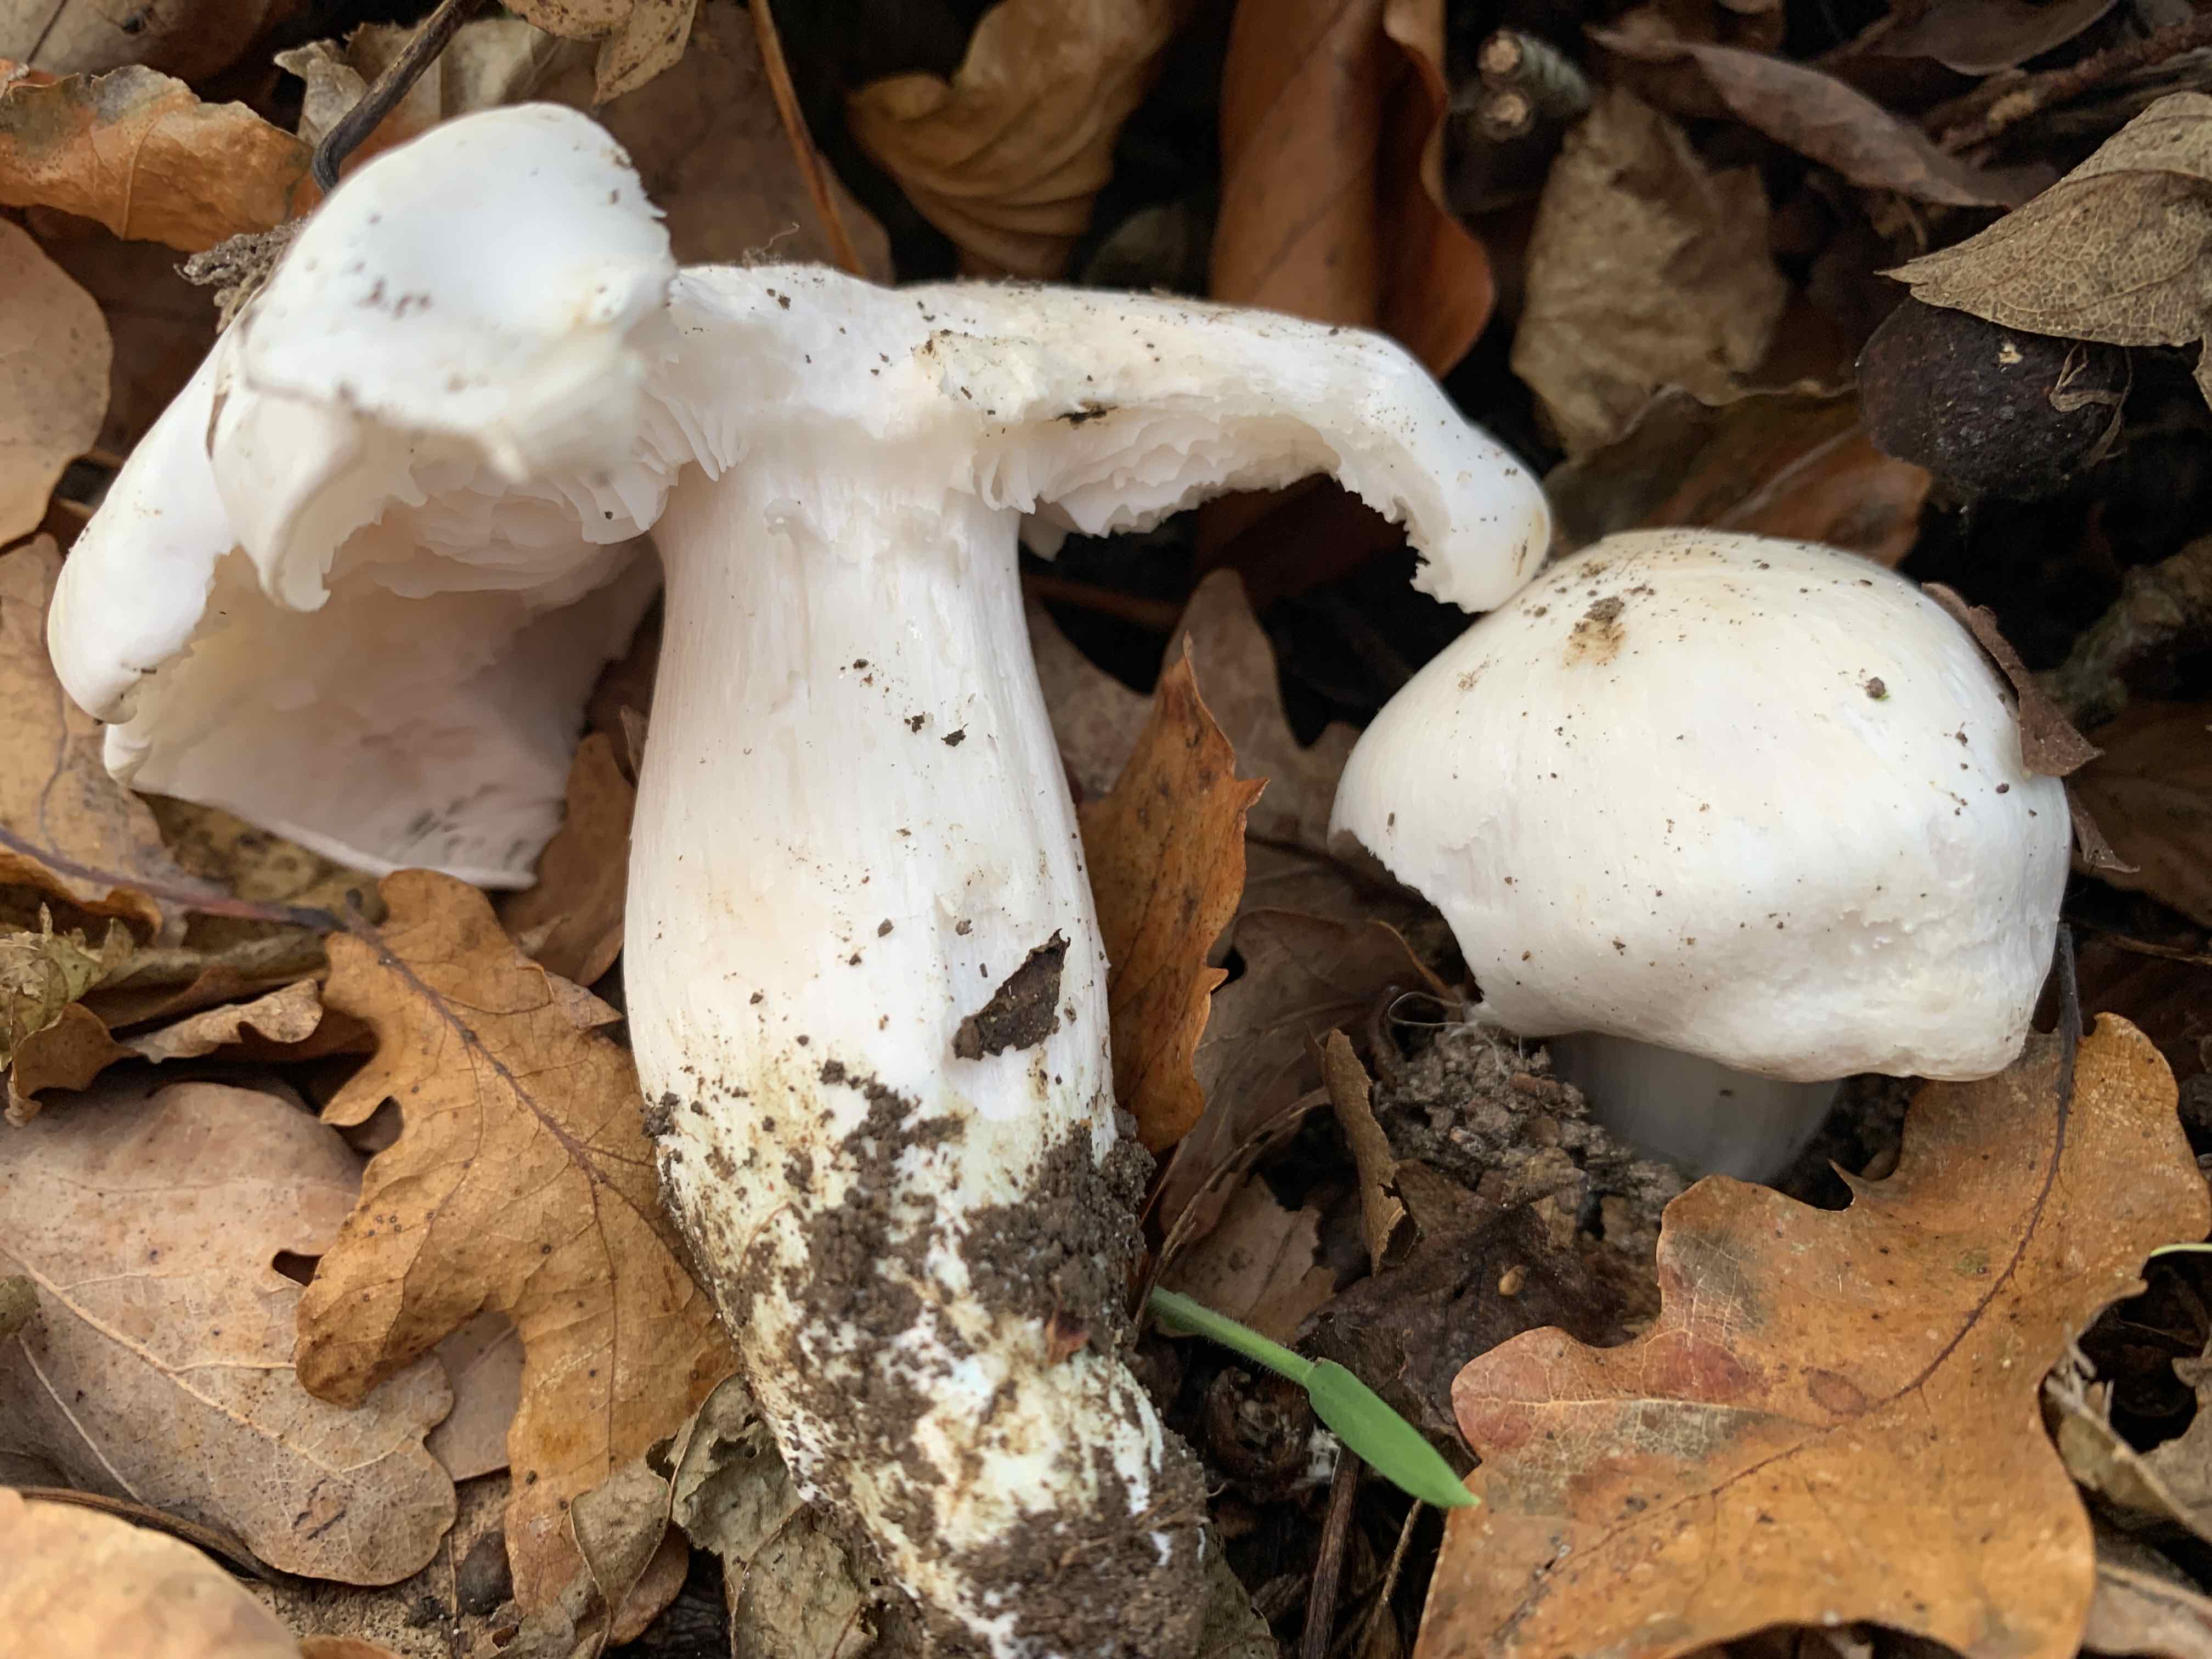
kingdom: Fungi
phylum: Basidiomycota
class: Agaricomycetes
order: Agaricales
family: Tricholomataceae
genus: Tricholoma
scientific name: Tricholoma columbetta
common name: silke-ridderhat
